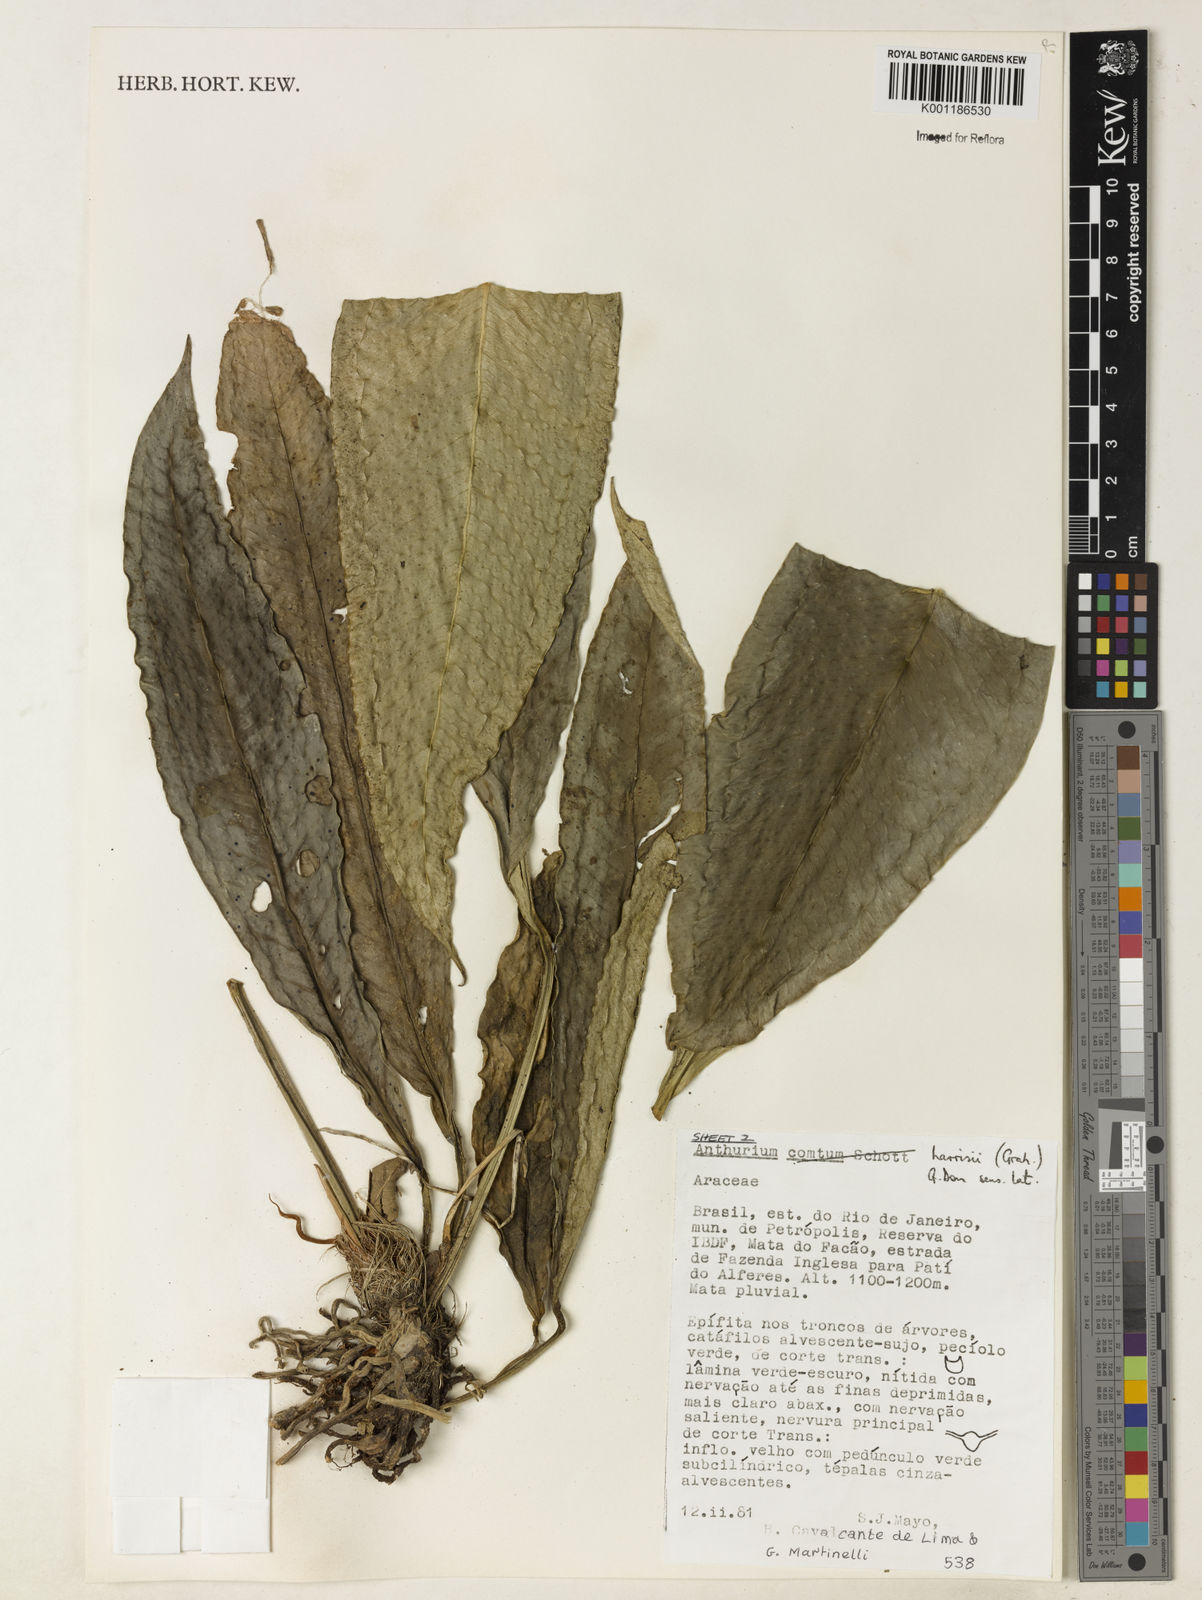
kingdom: Plantae
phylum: Tracheophyta
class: Liliopsida
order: Alismatales
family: Araceae
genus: Anthurium
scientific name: Anthurium harrisii
